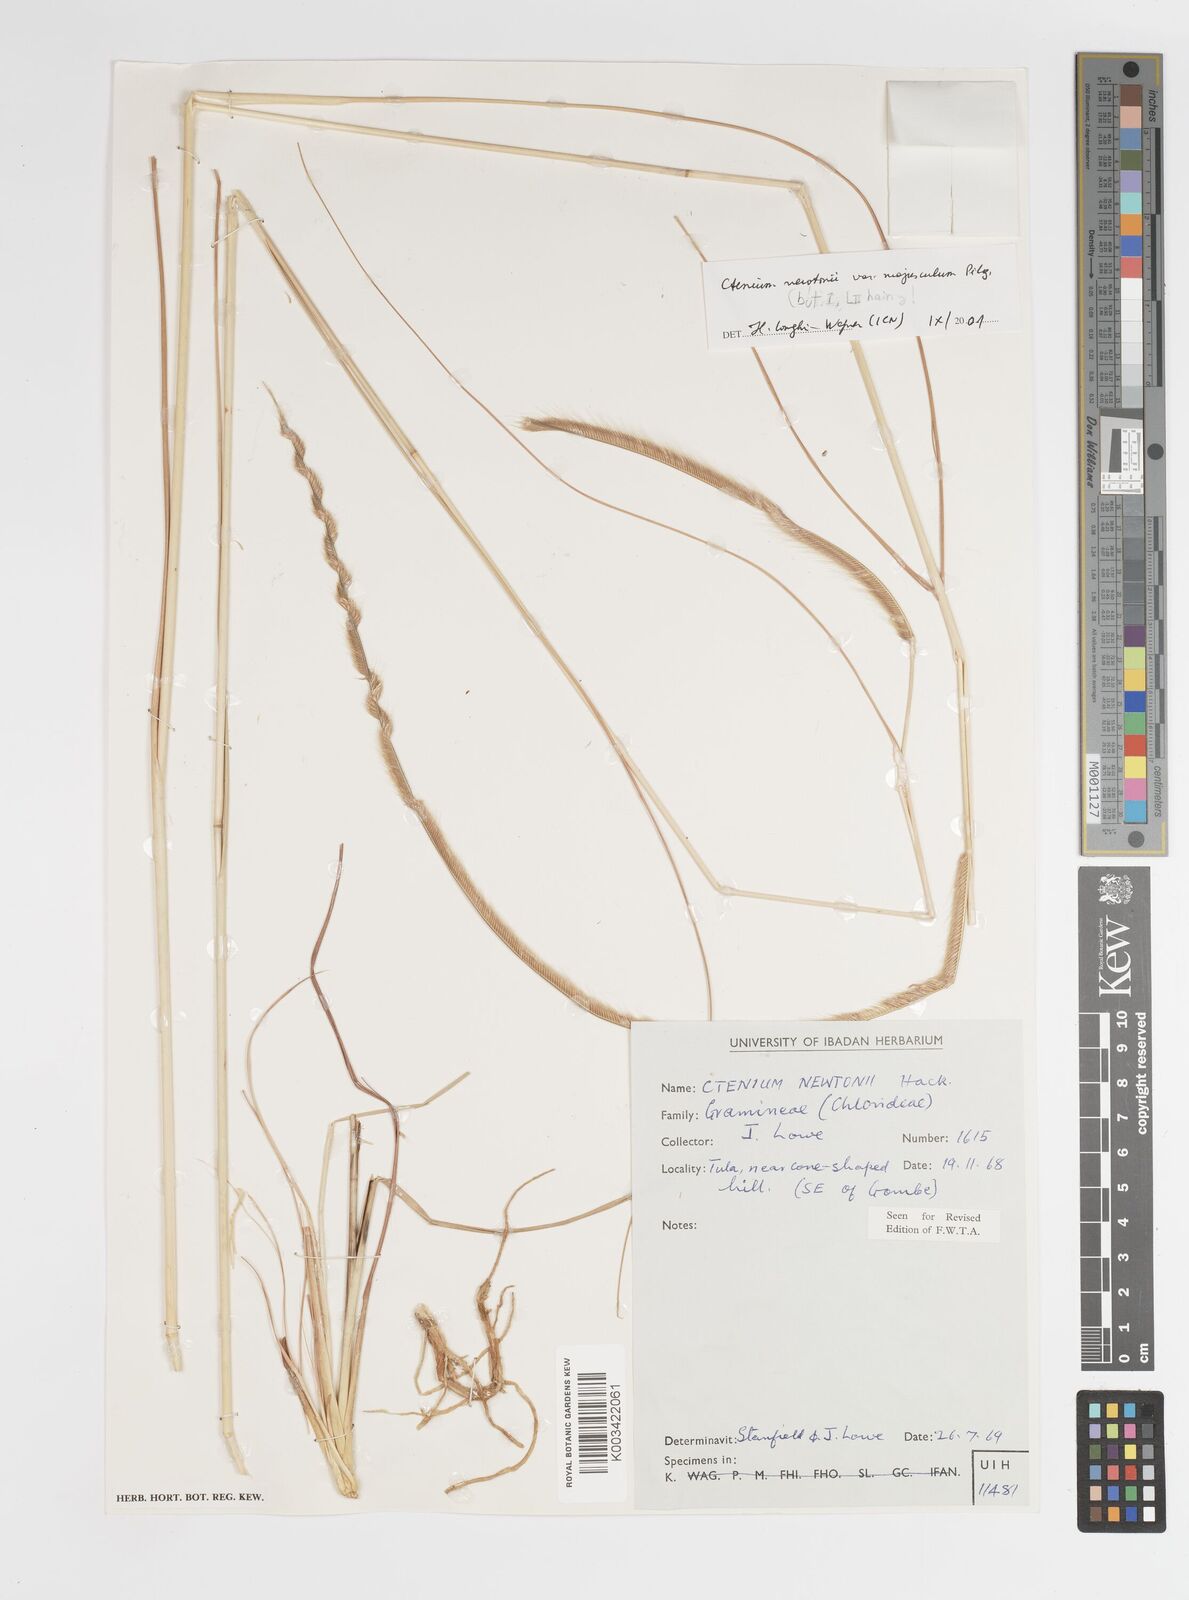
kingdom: Plantae
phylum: Tracheophyta
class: Liliopsida
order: Poales
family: Poaceae
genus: Ctenium
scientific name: Ctenium newtonii
